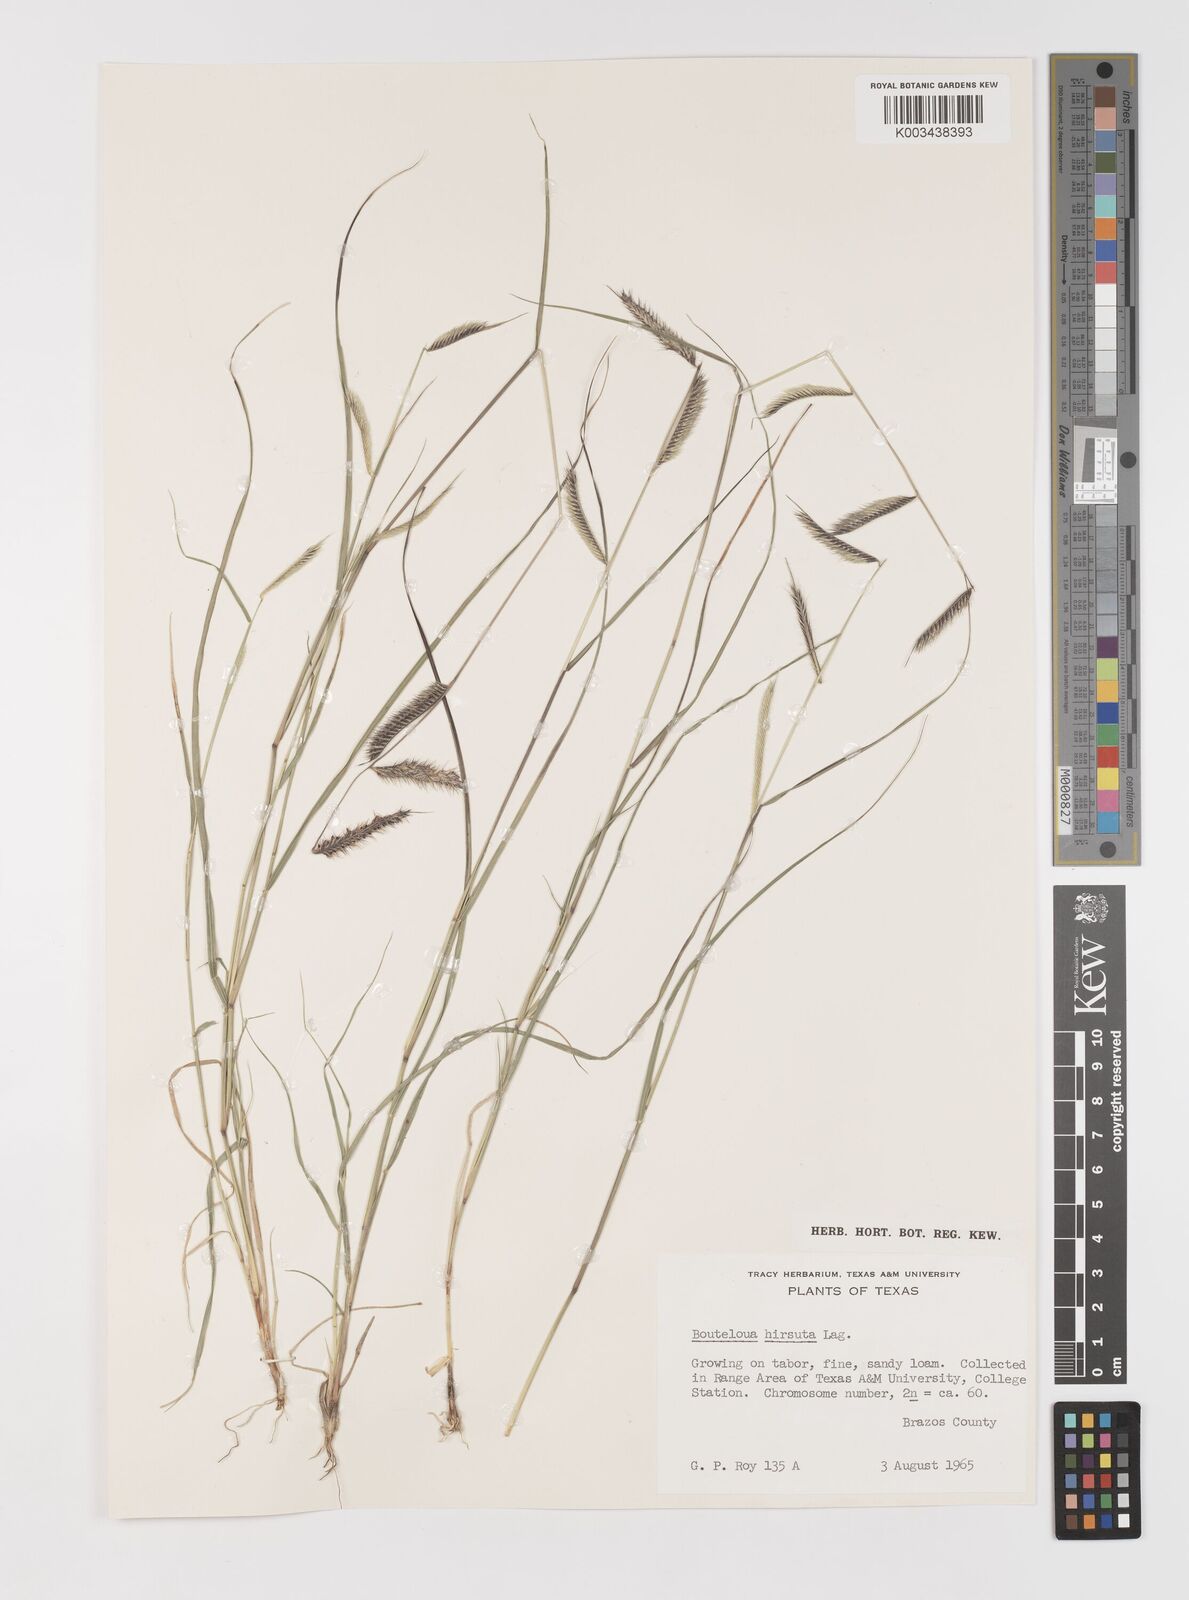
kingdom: Plantae
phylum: Tracheophyta
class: Liliopsida
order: Poales
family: Poaceae
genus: Bouteloua
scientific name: Bouteloua hirsuta
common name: Hairy grama
